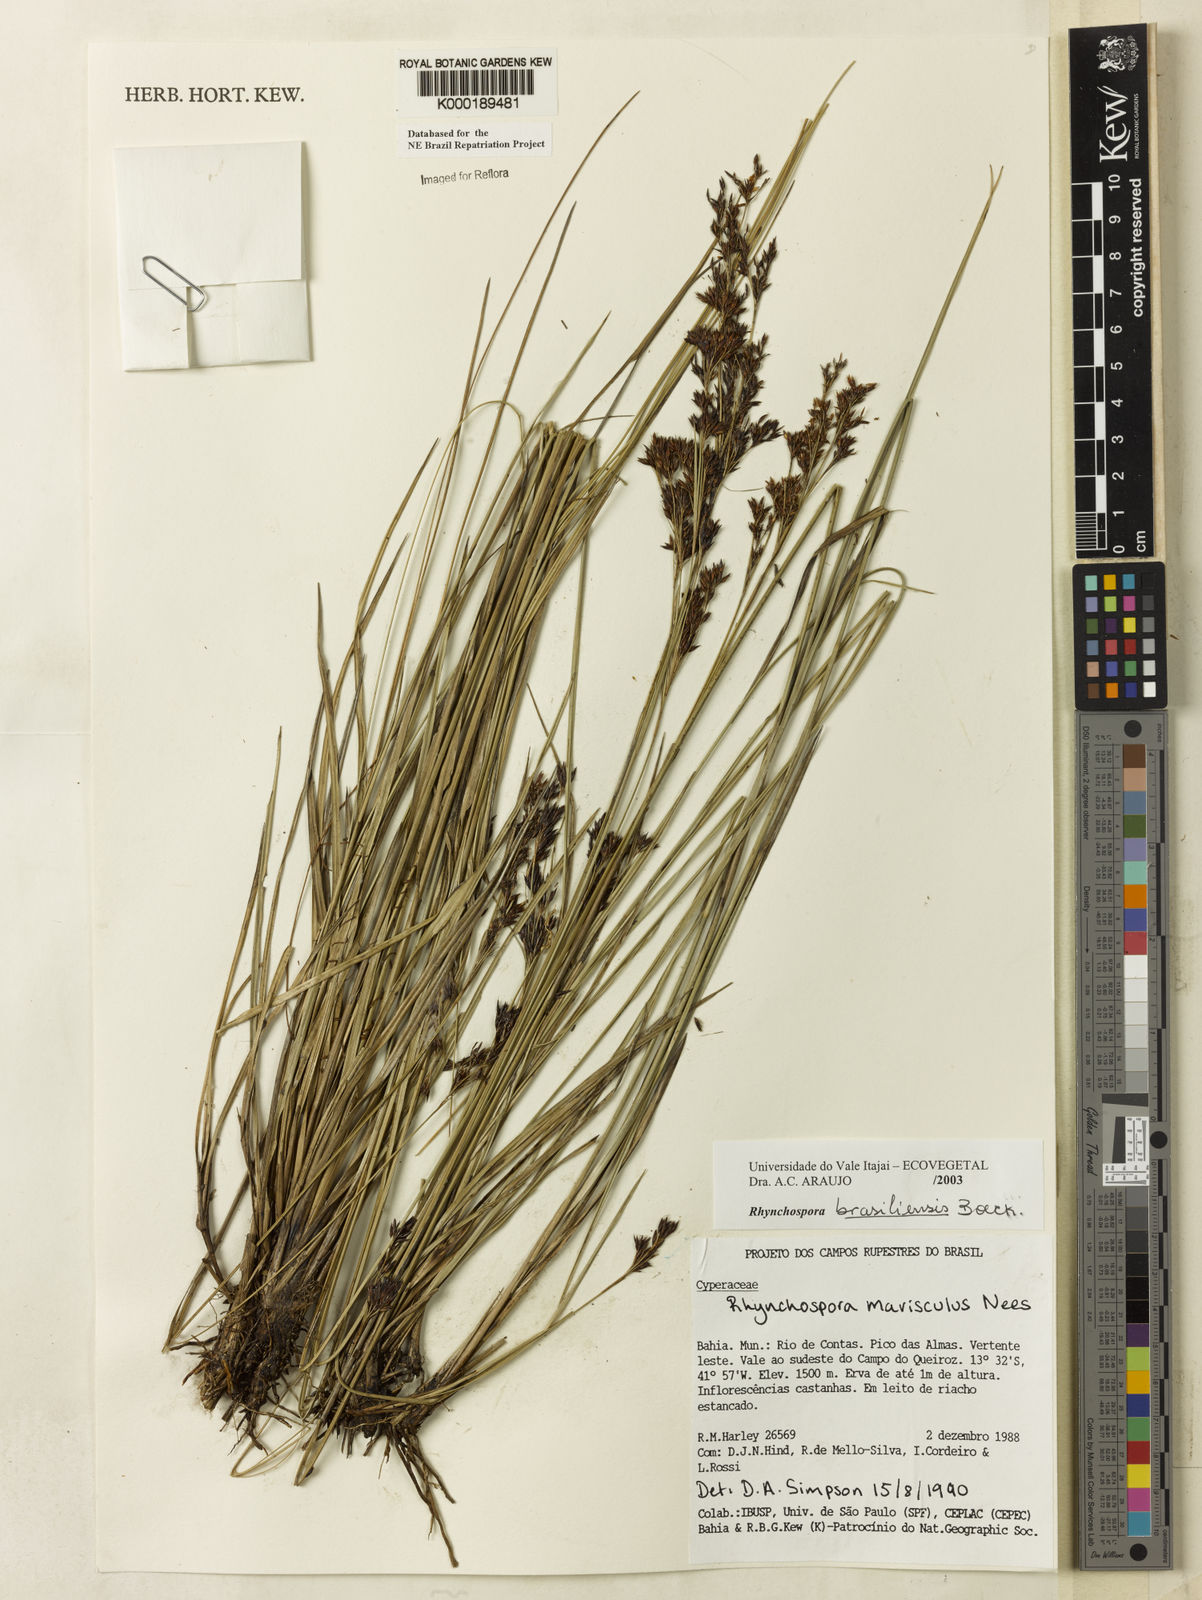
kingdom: Plantae
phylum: Tracheophyta
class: Liliopsida
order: Poales
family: Cyperaceae
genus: Rhynchospora
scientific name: Rhynchospora brasiliensis
